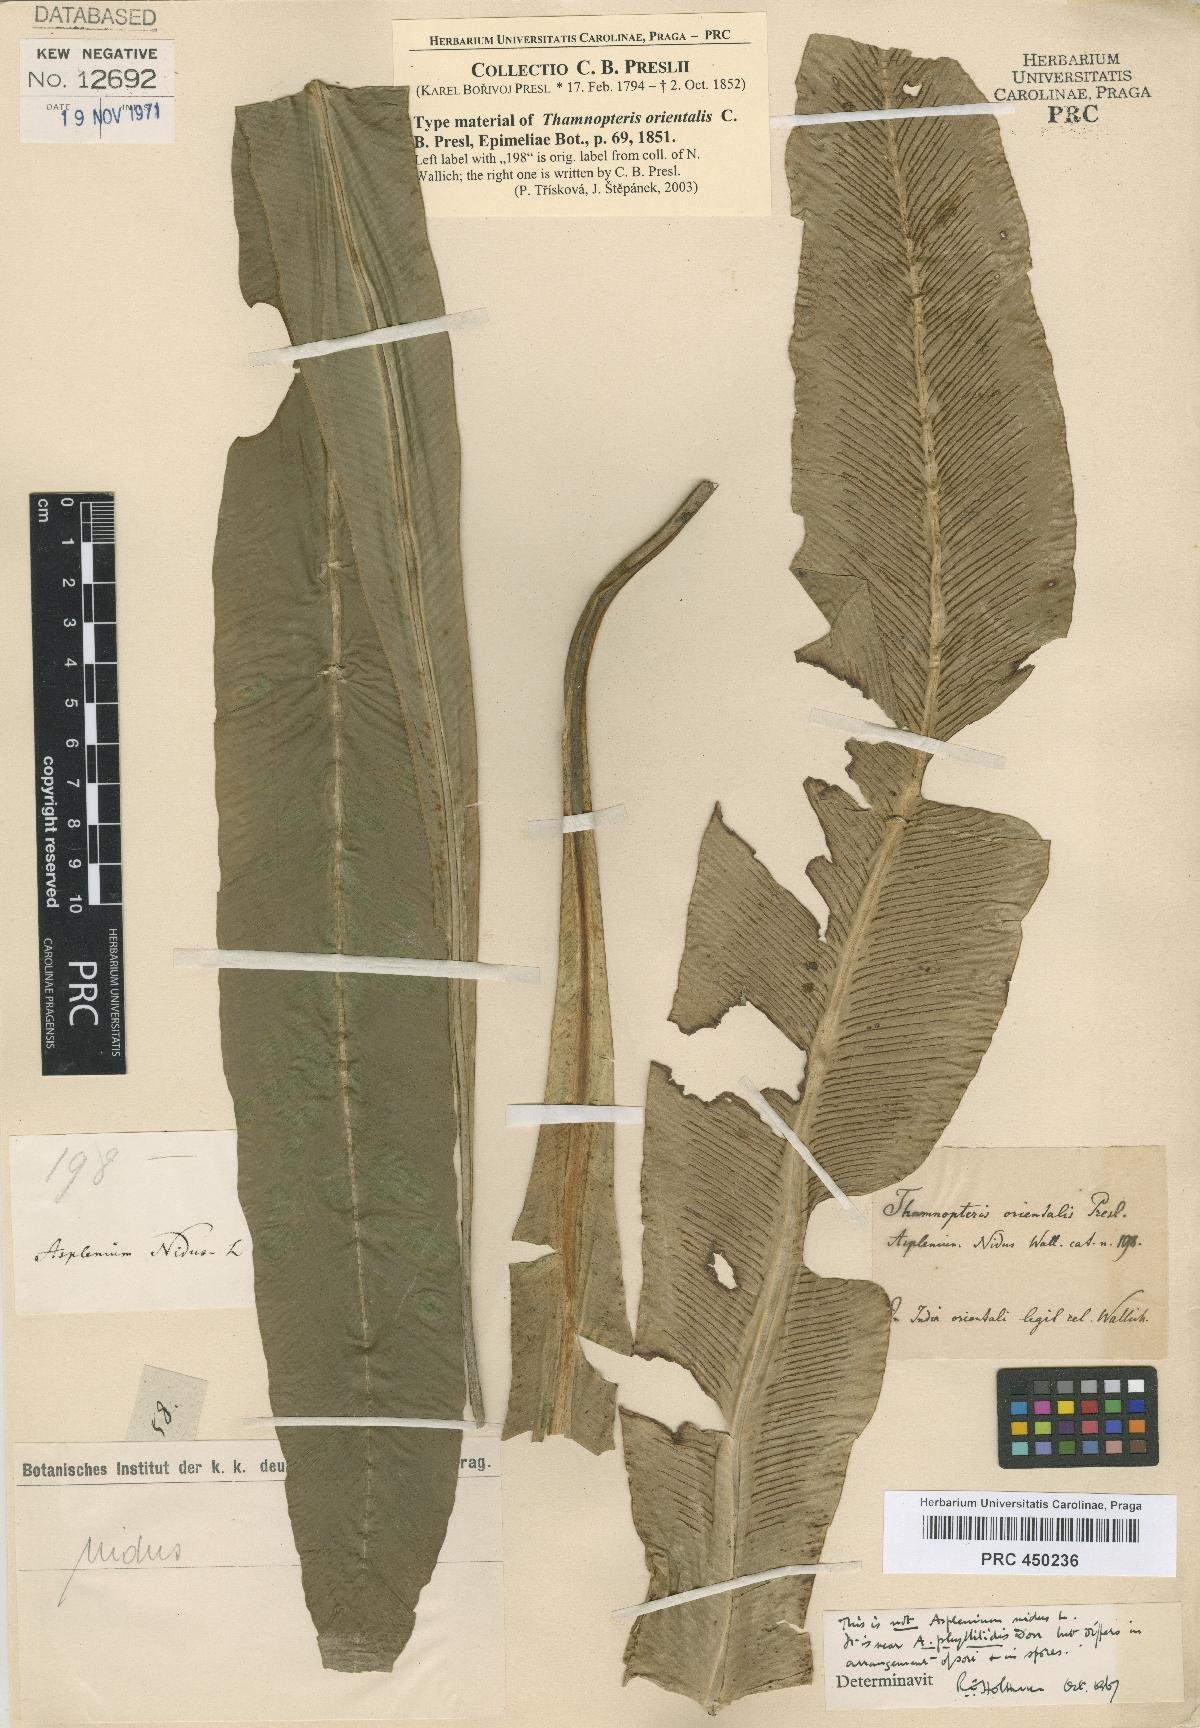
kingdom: Plantae
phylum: Tracheophyta
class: Polypodiopsida
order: Osmundales
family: Osmundaceae
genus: Thamnopteris
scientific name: Thamnopteris
